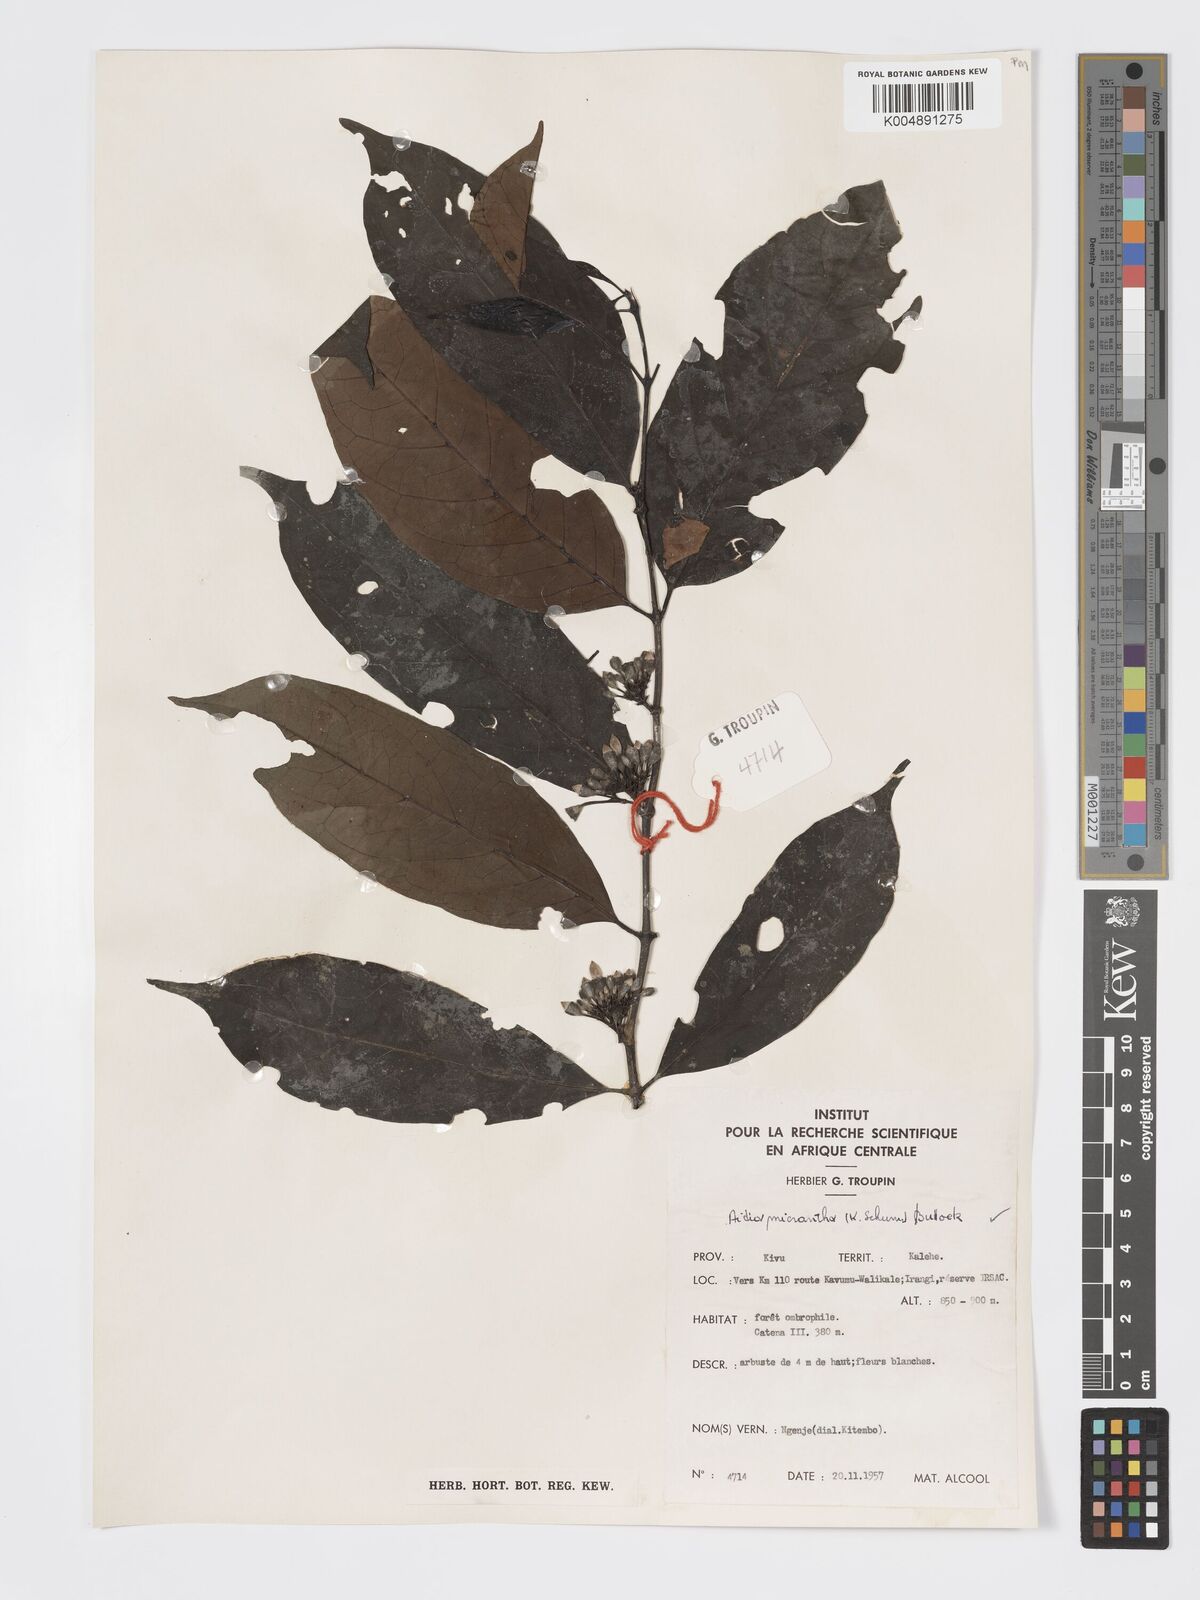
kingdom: Plantae
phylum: Tracheophyta
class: Magnoliopsida
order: Gentianales
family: Rubiaceae
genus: Aidia
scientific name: Aidia micrantha
